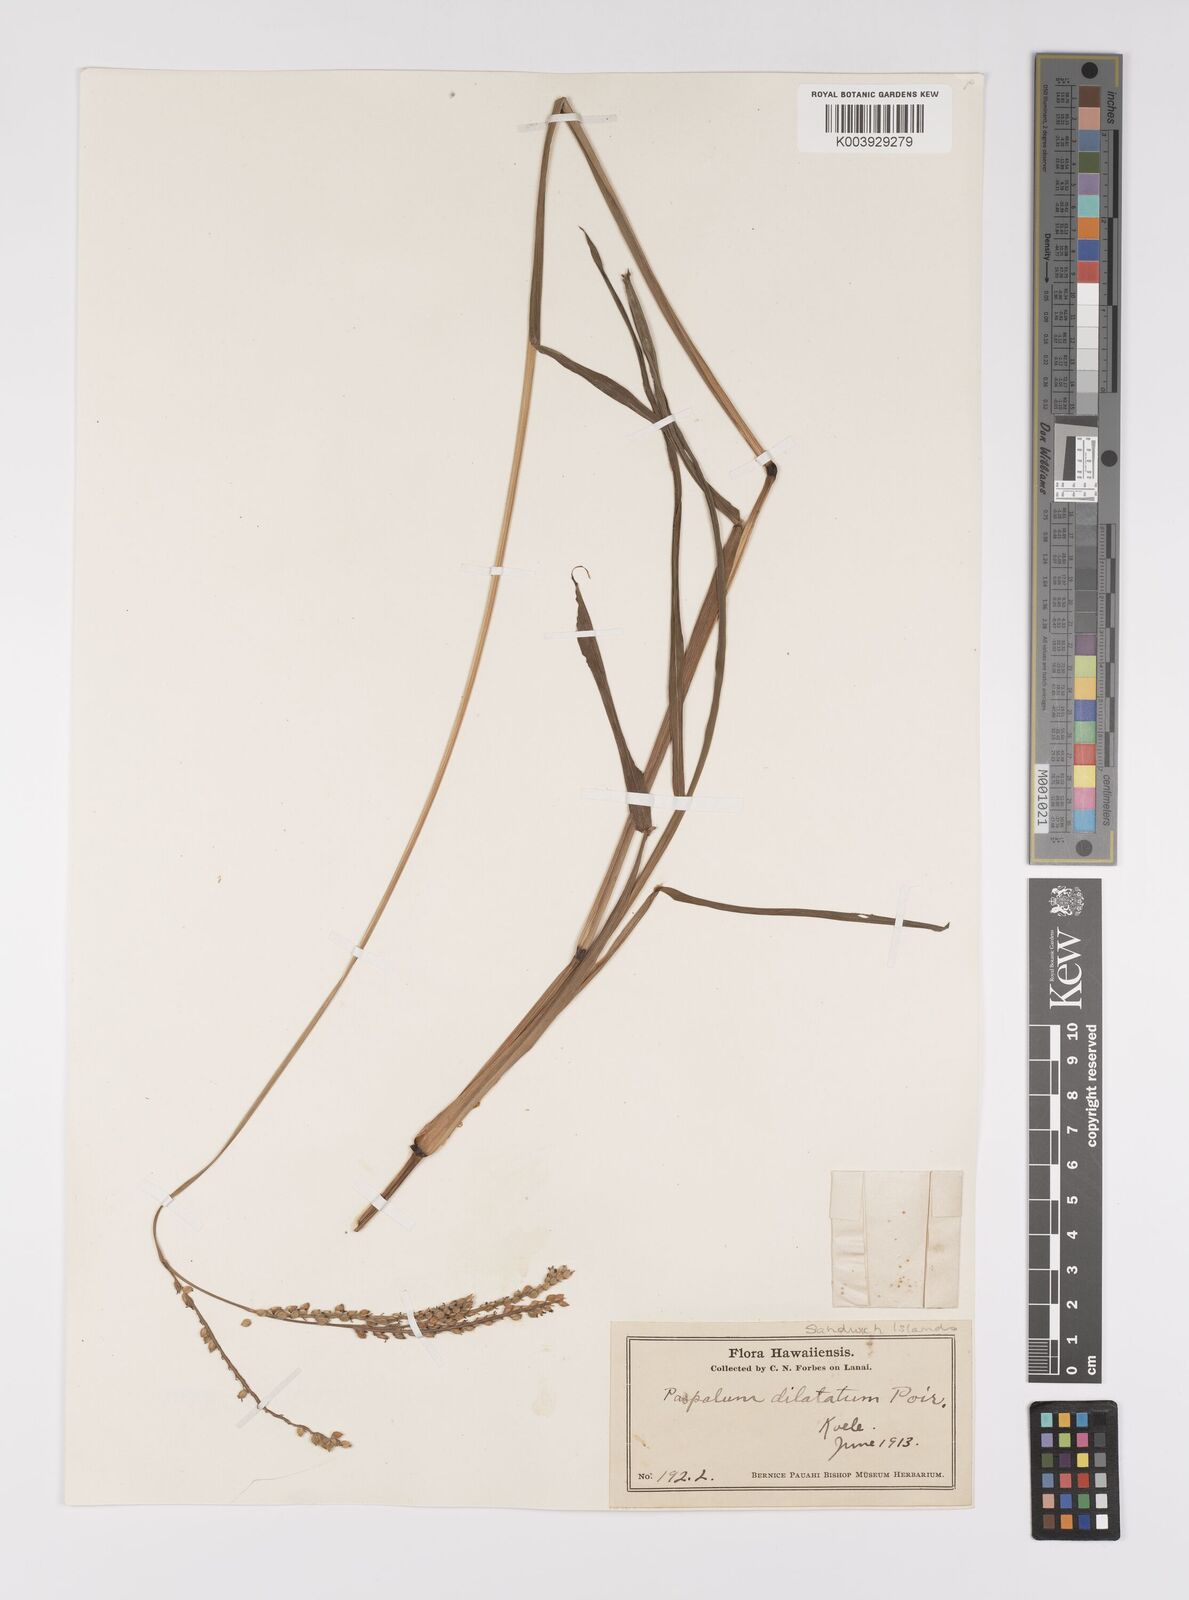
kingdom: Plantae
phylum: Tracheophyta
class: Liliopsida
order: Poales
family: Poaceae
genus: Paspalum
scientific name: Paspalum dilatatum
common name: Dallisgrass
